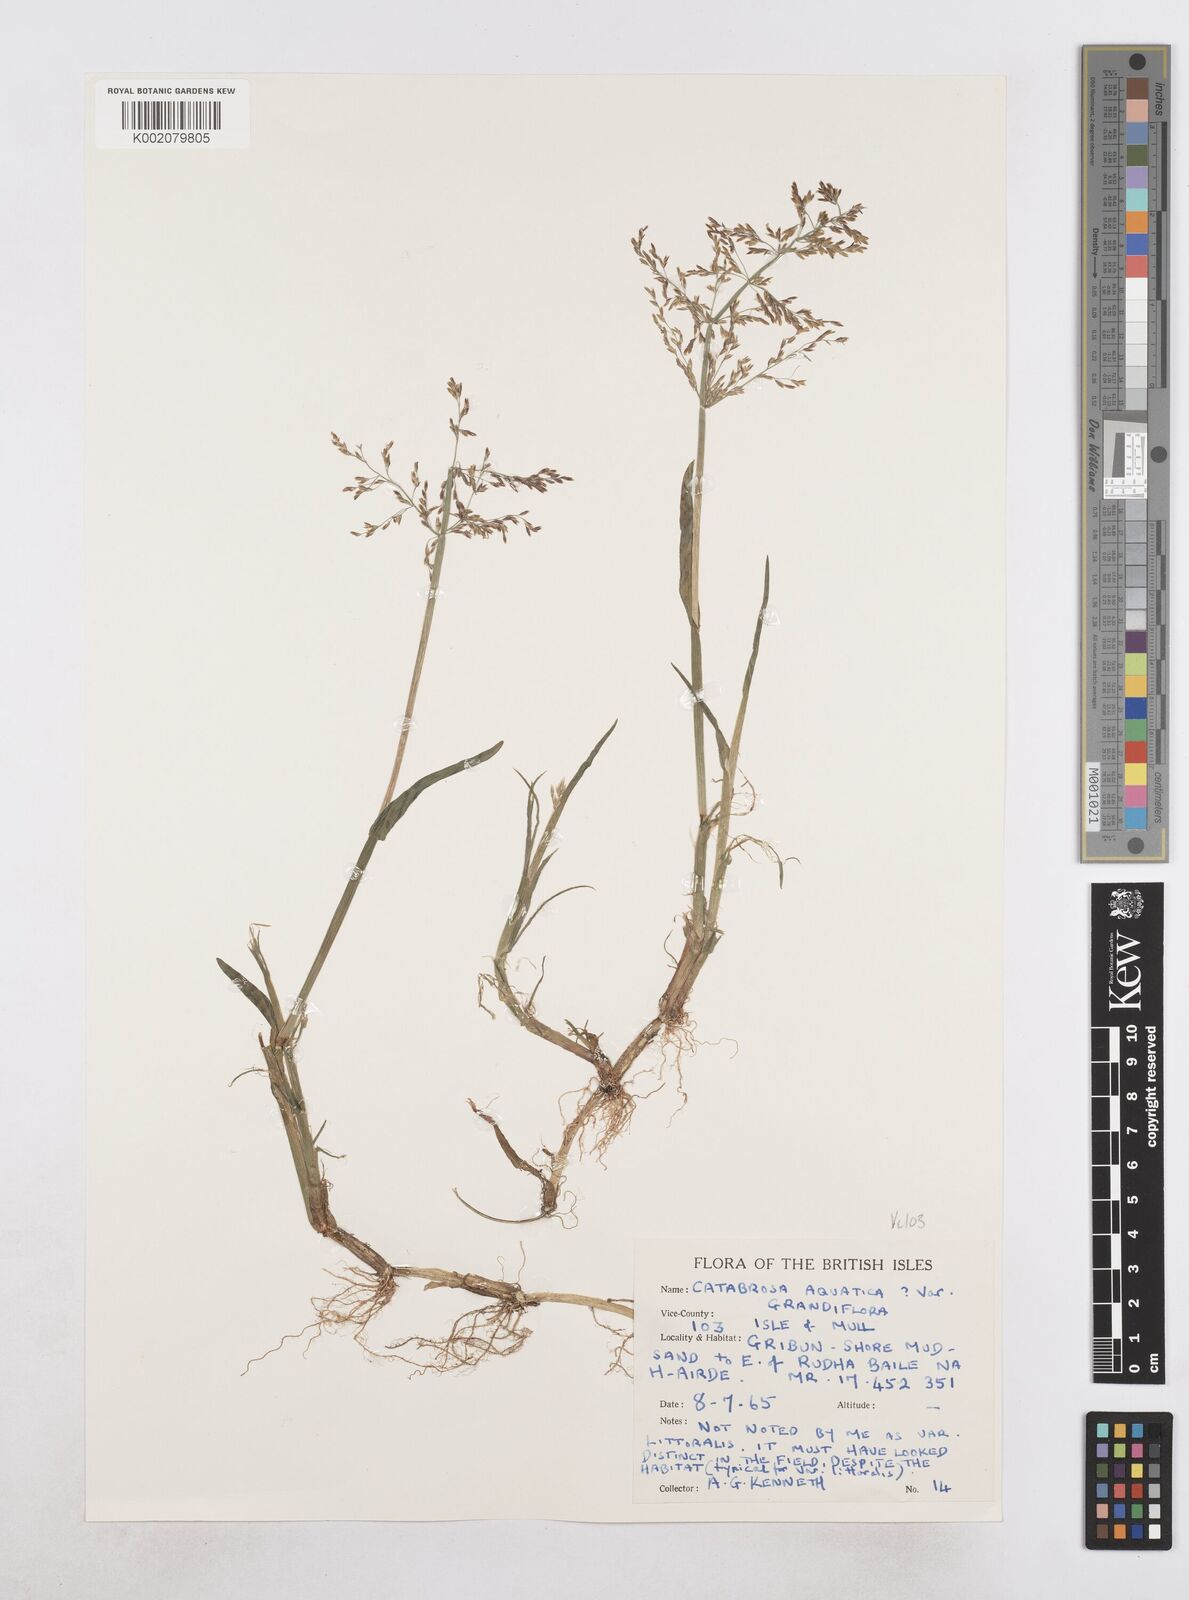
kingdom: Plantae
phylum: Tracheophyta
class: Liliopsida
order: Poales
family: Poaceae
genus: Catabrosa
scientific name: Catabrosa aquatica
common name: Whorl-grass
